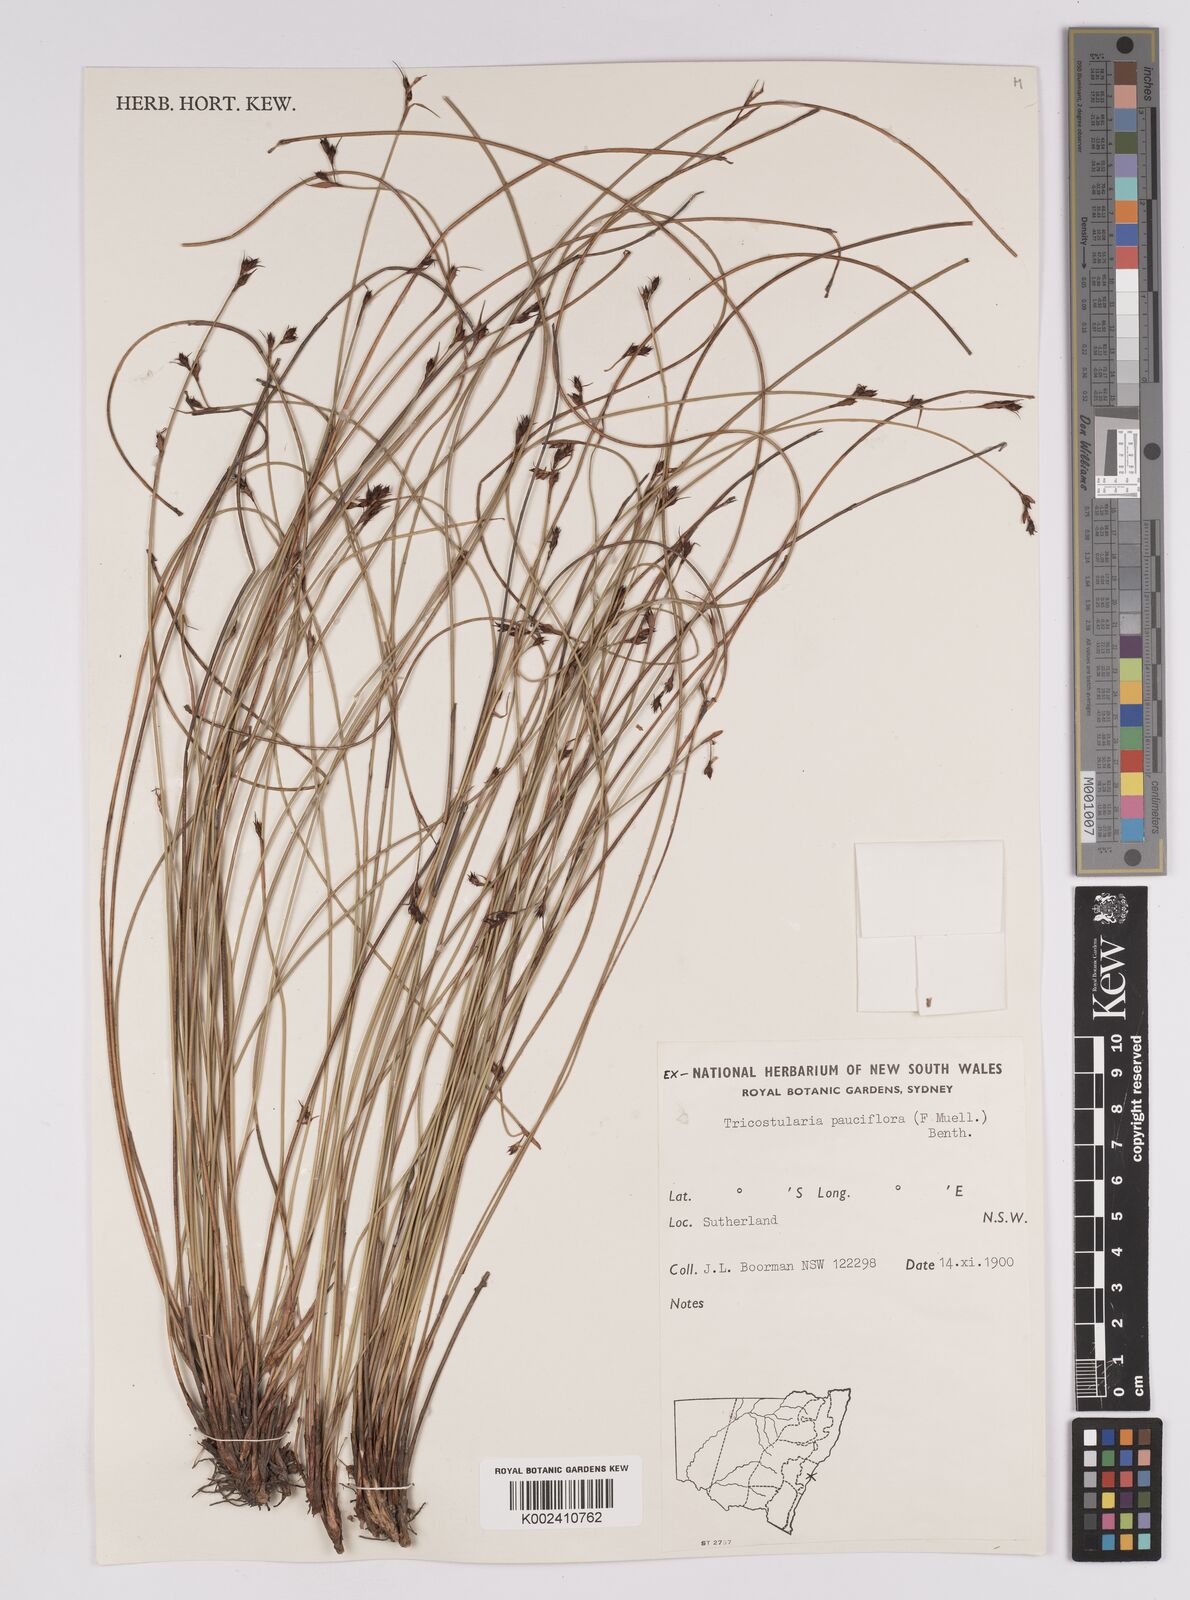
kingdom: Plantae
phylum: Tracheophyta
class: Liliopsida
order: Poales
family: Cyperaceae
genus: Tricostularia
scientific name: Tricostularia pauciflora
